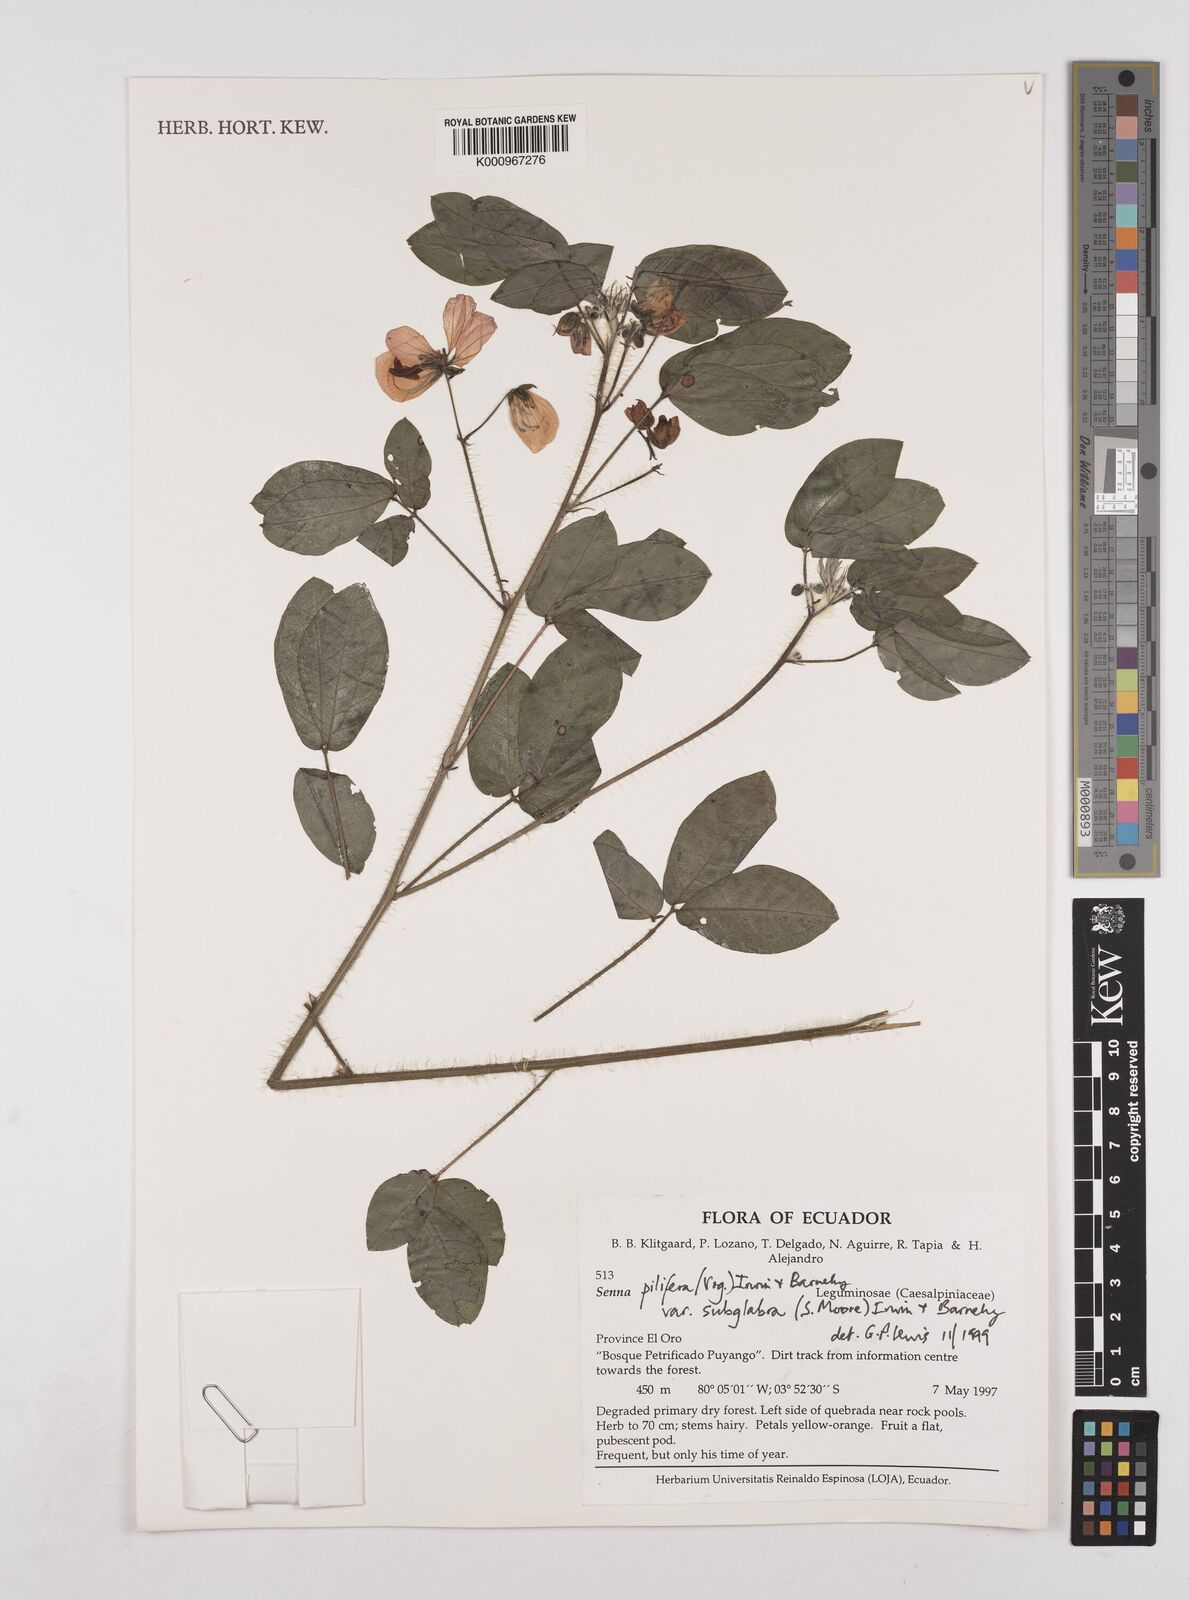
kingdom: Plantae
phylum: Tracheophyta
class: Magnoliopsida
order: Fabales
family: Fabaceae
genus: Senna
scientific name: Senna pilifera
